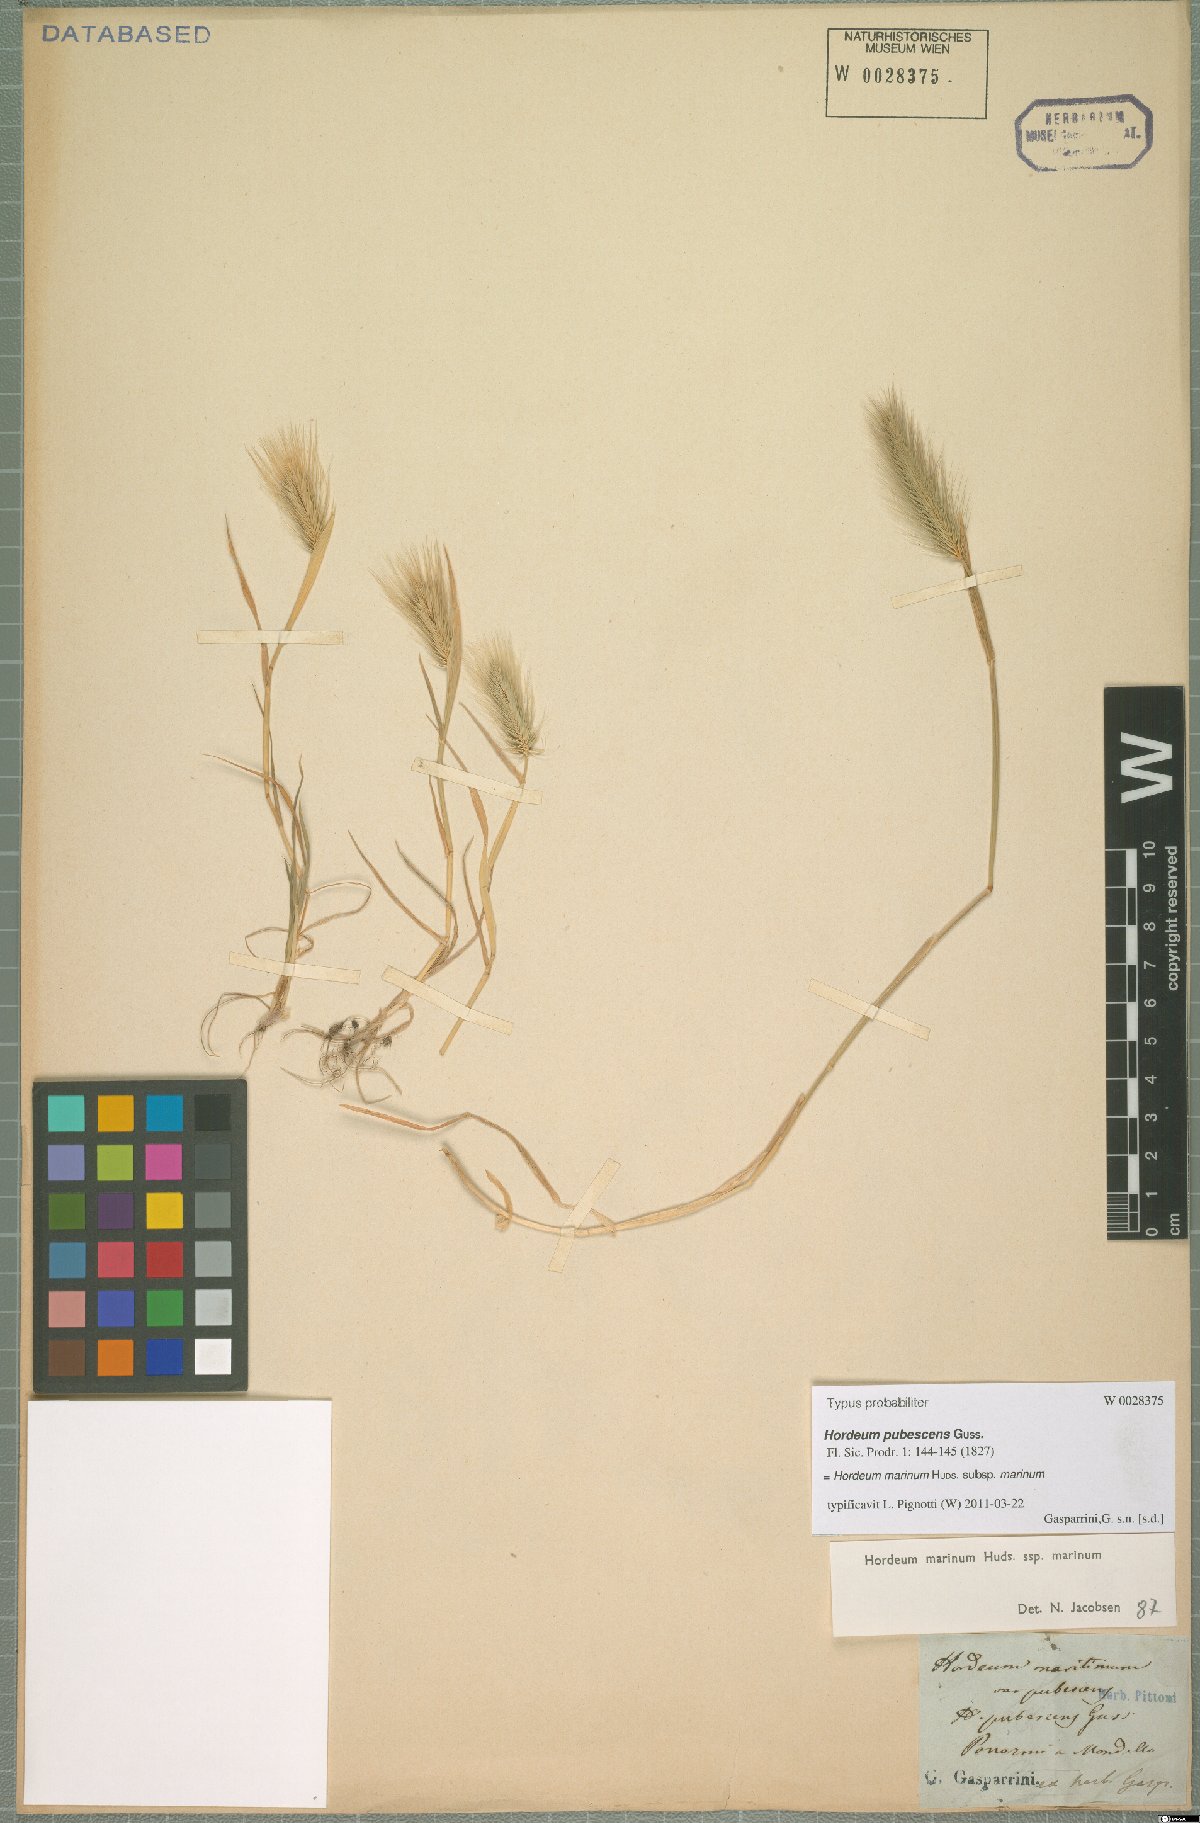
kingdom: Plantae
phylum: Tracheophyta
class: Liliopsida
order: Poales
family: Poaceae
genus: Hordeum
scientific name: Hordeum marinum
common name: Sea barley
